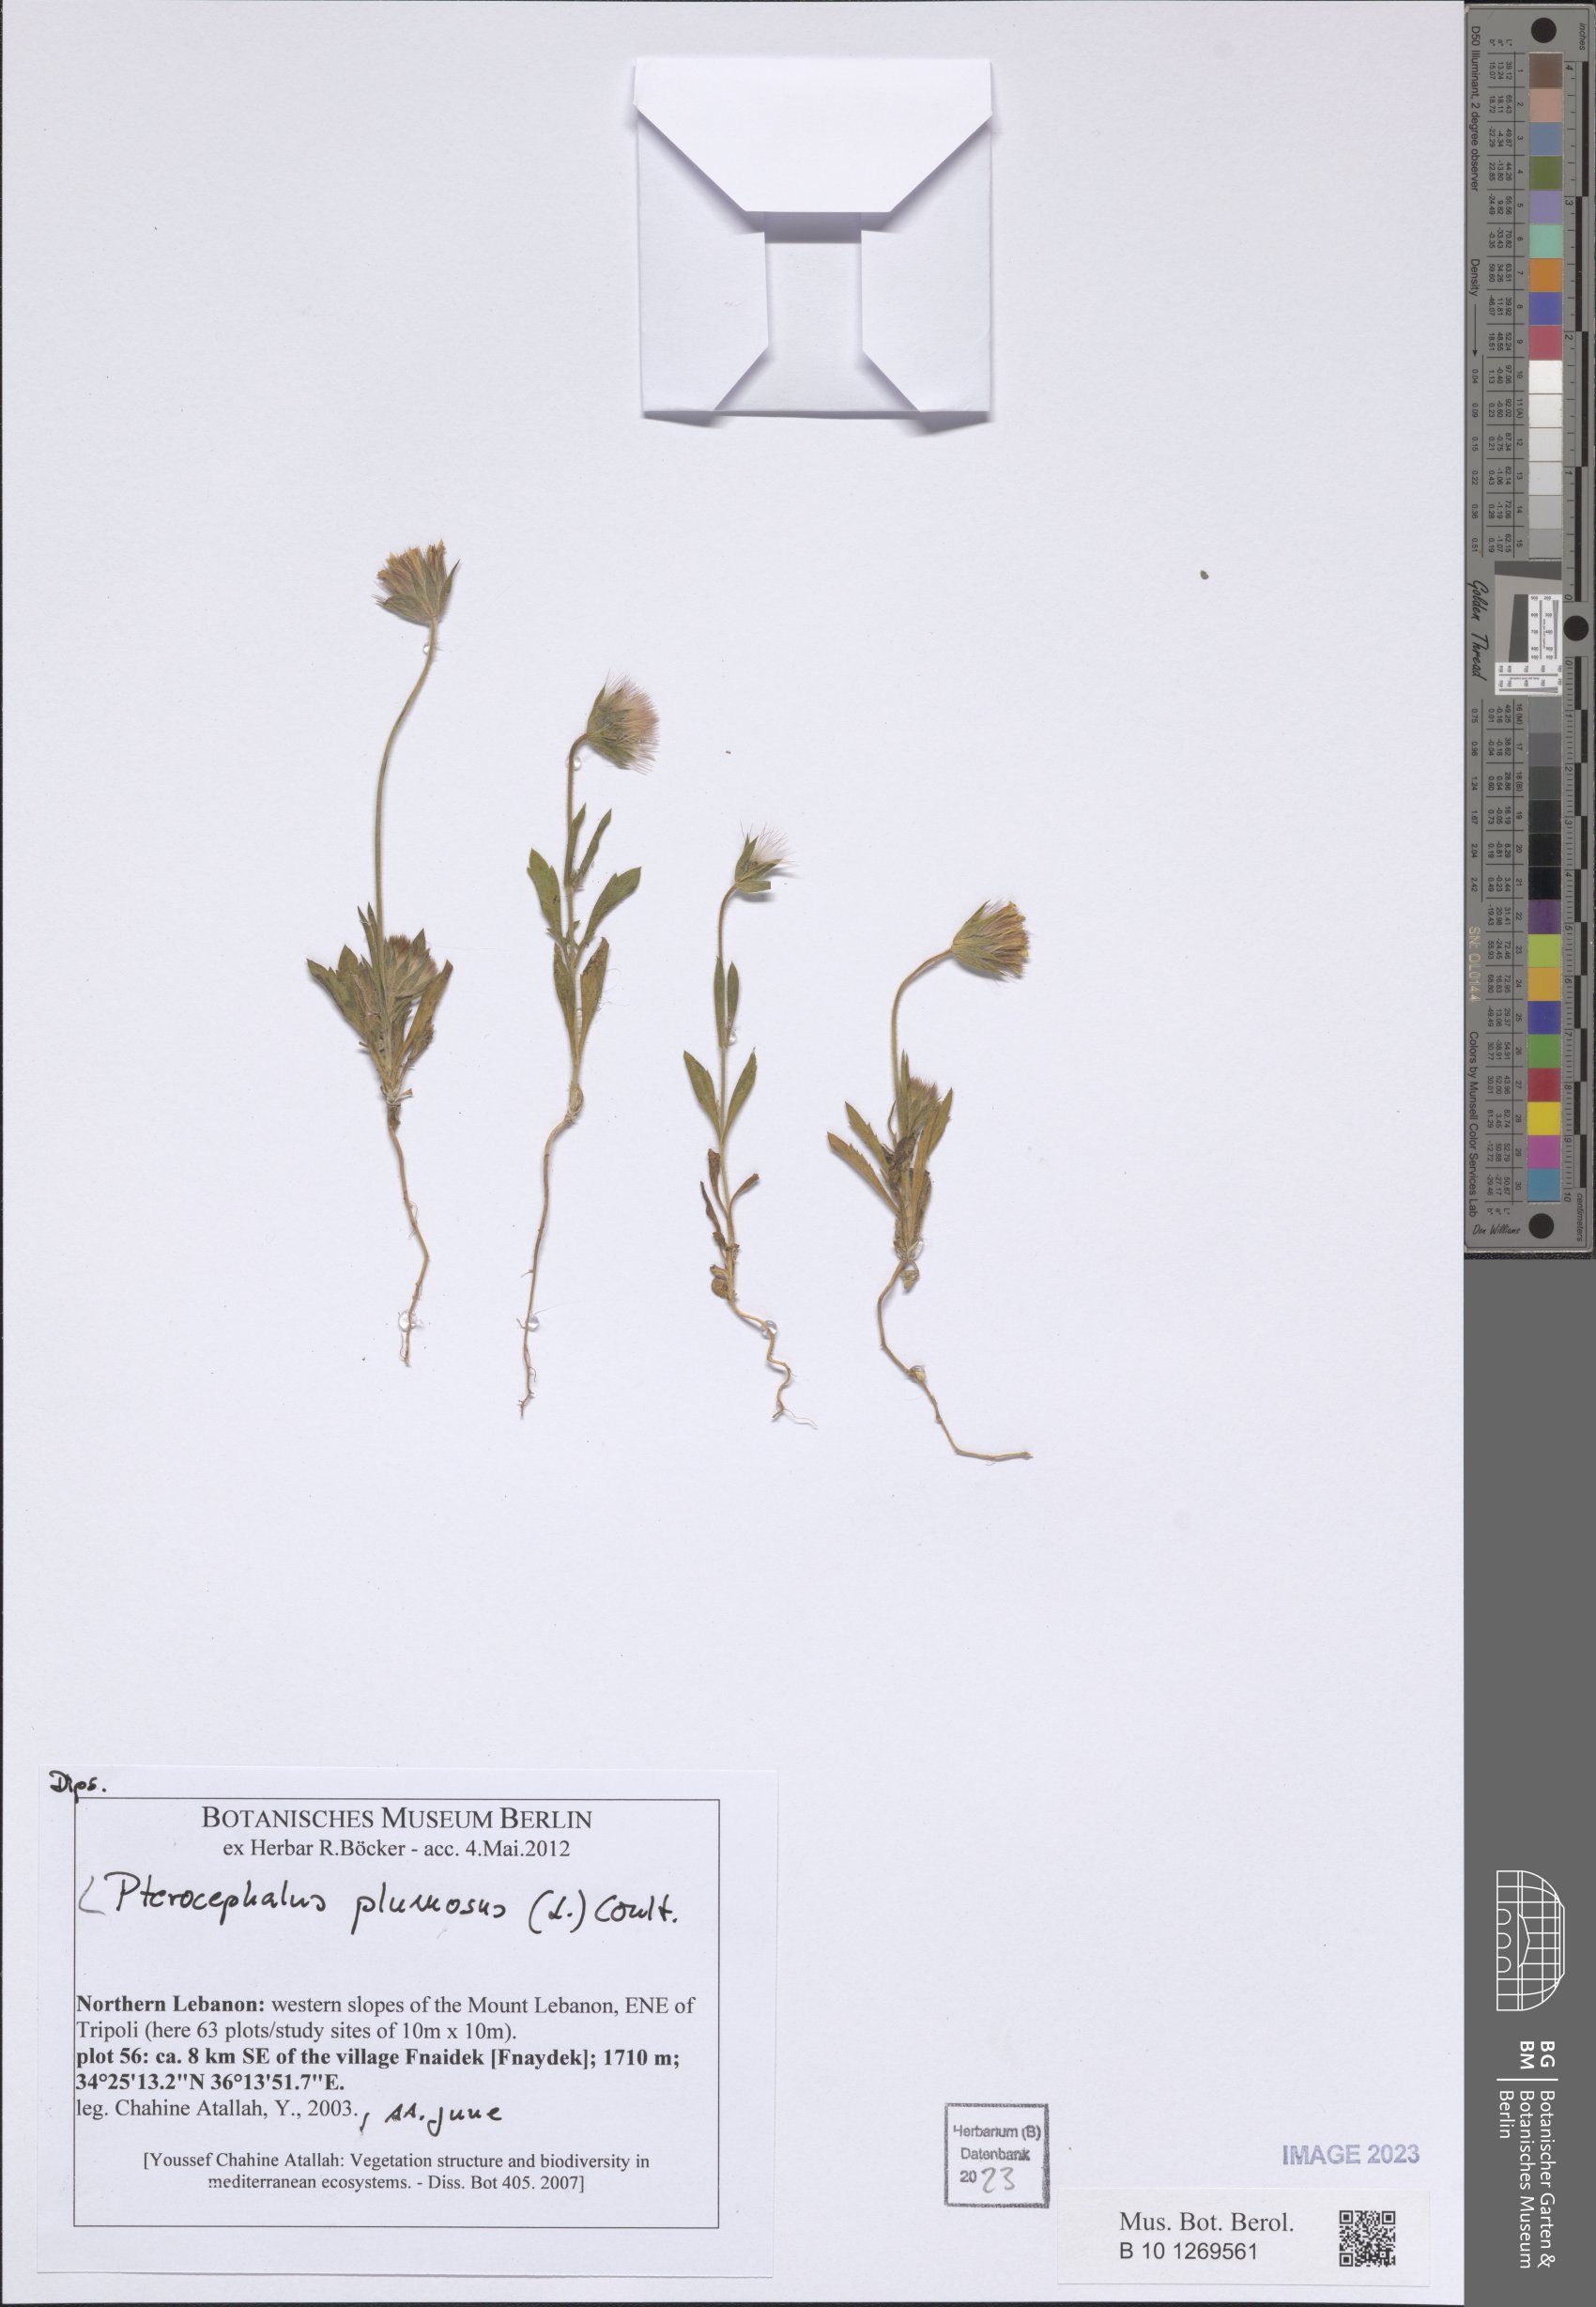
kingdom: Plantae
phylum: Tracheophyta
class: Magnoliopsida
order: Dipsacales
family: Caprifoliaceae
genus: Pterocephalus
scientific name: Pterocephalus plumosus
